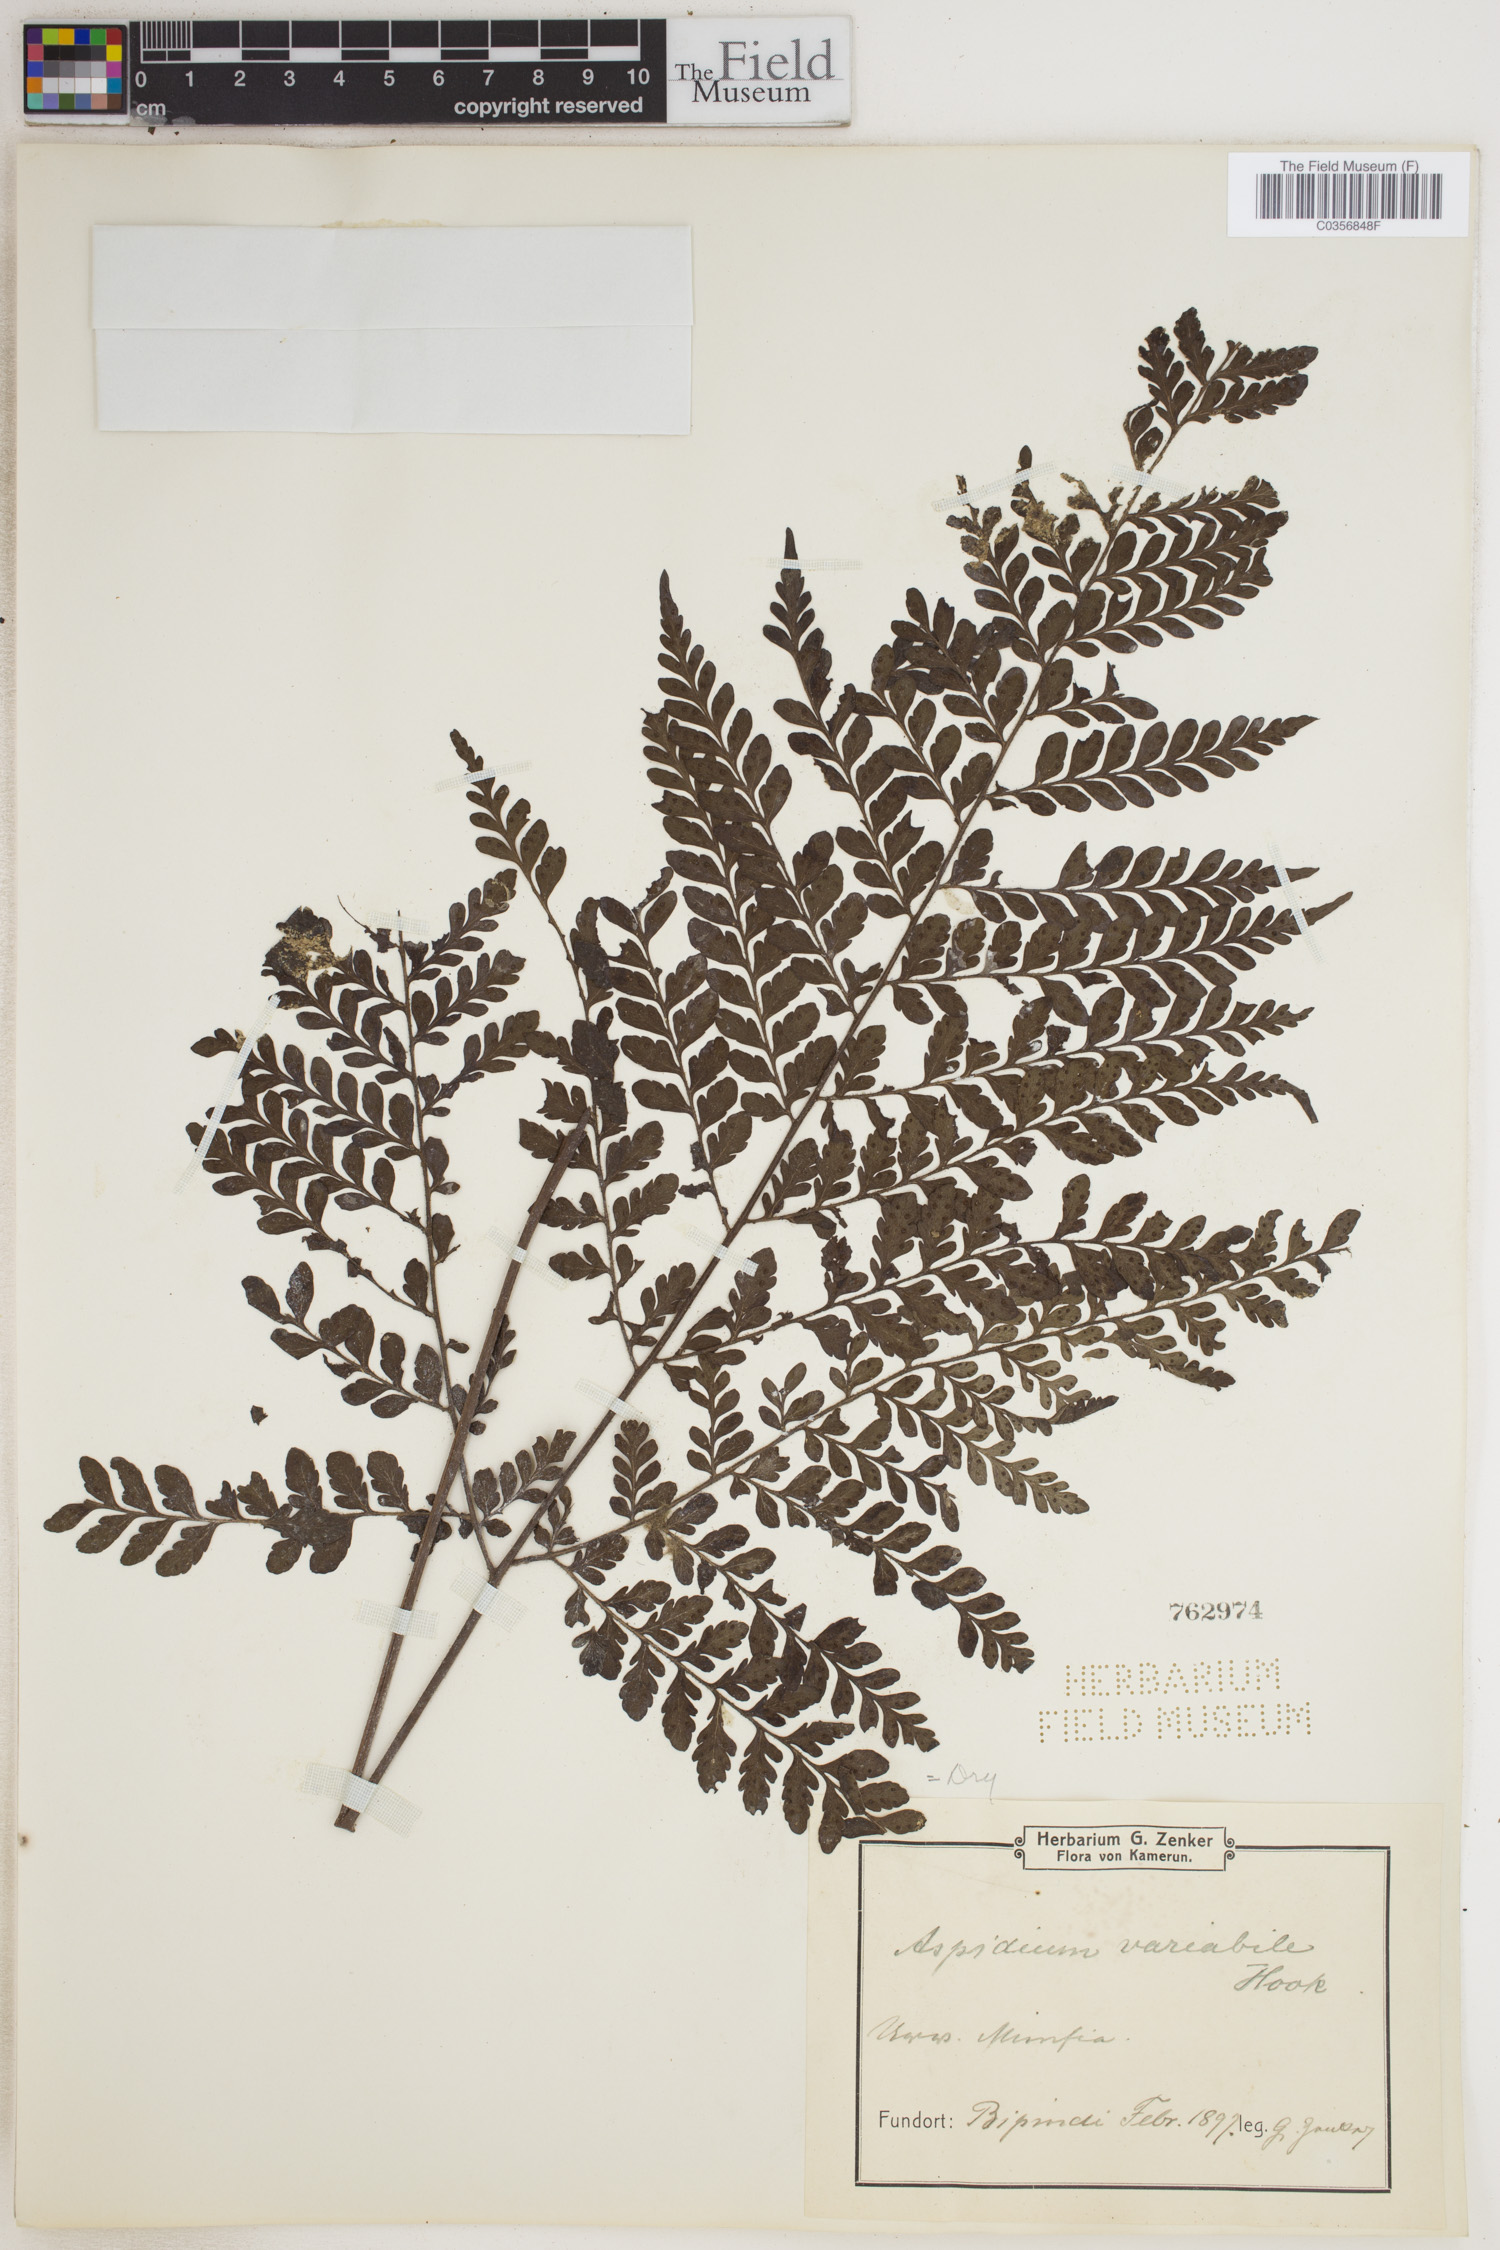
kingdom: Plantae
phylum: Tracheophyta
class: Polypodiopsida
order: Polypodiales
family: Tectariaceae
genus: Polydictyum
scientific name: Polydictyum variabile
